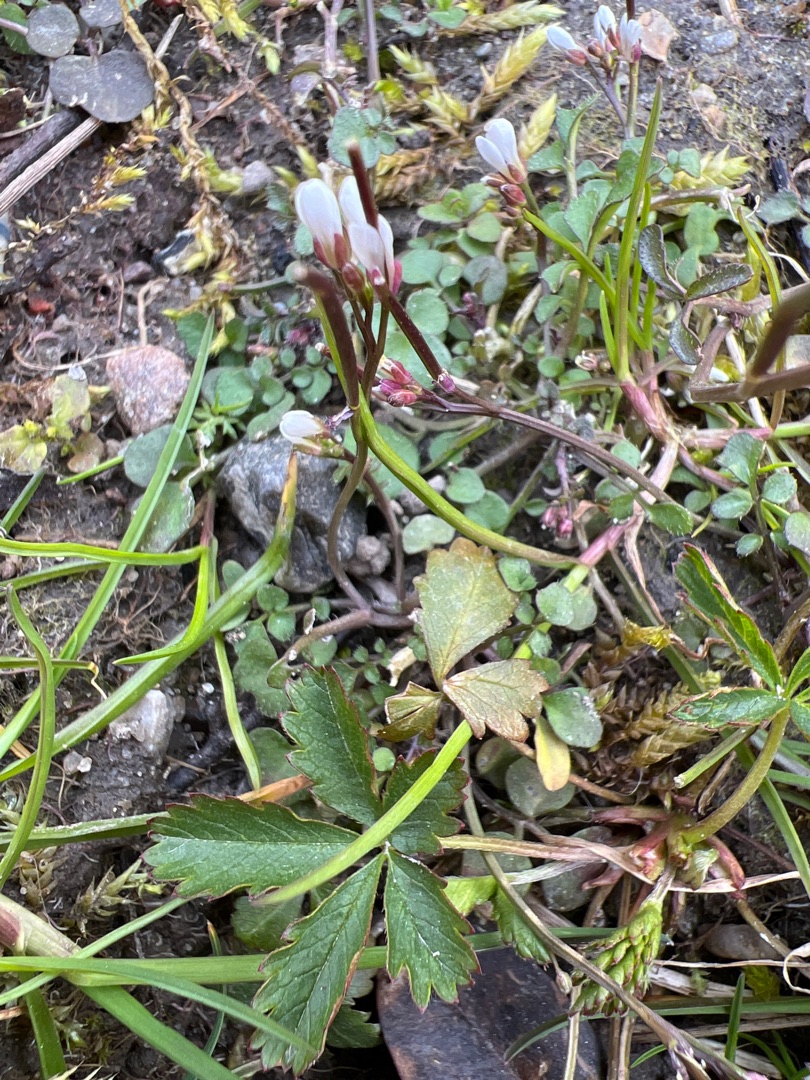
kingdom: Plantae
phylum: Tracheophyta
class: Magnoliopsida
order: Brassicales
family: Brassicaceae
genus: Cardamine
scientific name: Cardamine hirsuta
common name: Roset-springklap
